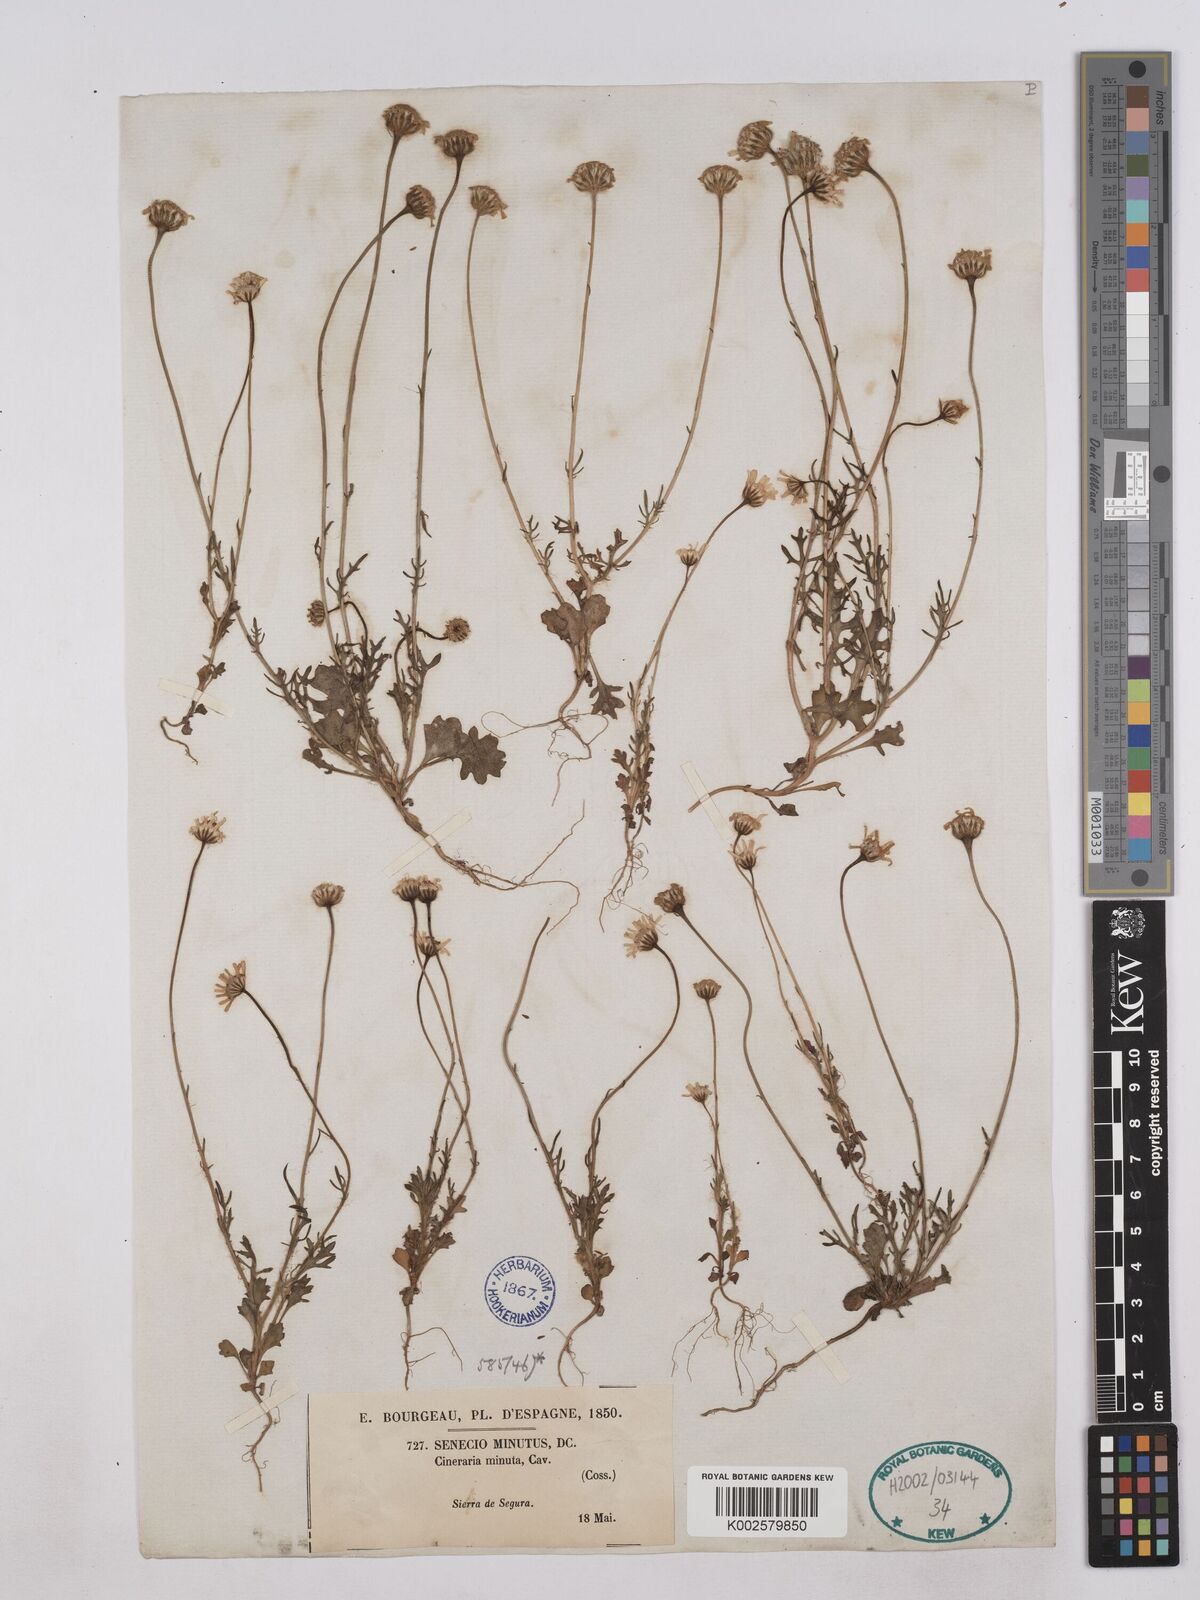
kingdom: Plantae
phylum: Tracheophyta
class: Magnoliopsida
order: Asterales
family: Asteraceae
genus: Jacobaea
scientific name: Jacobaea minuta
